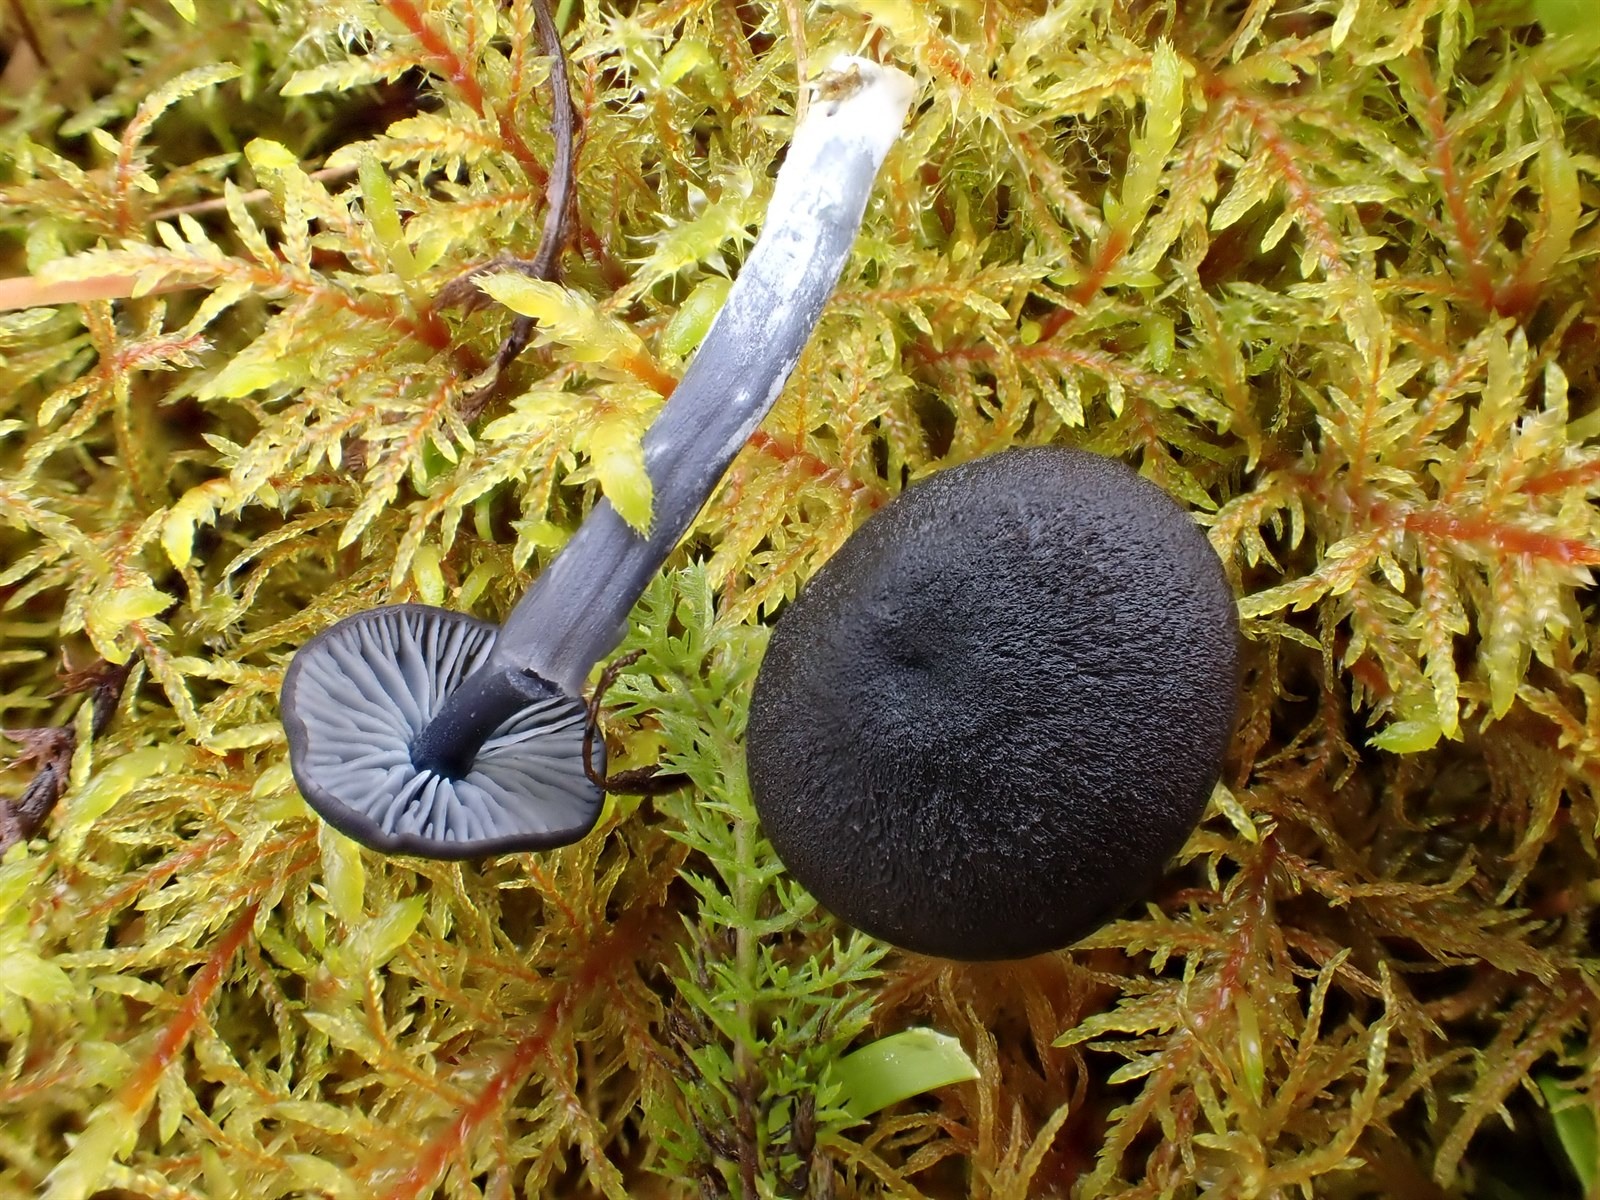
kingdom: Fungi
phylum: Basidiomycota
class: Agaricomycetes
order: Agaricales
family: Entolomataceae
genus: Entoloma
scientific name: Entoloma chalybeum
